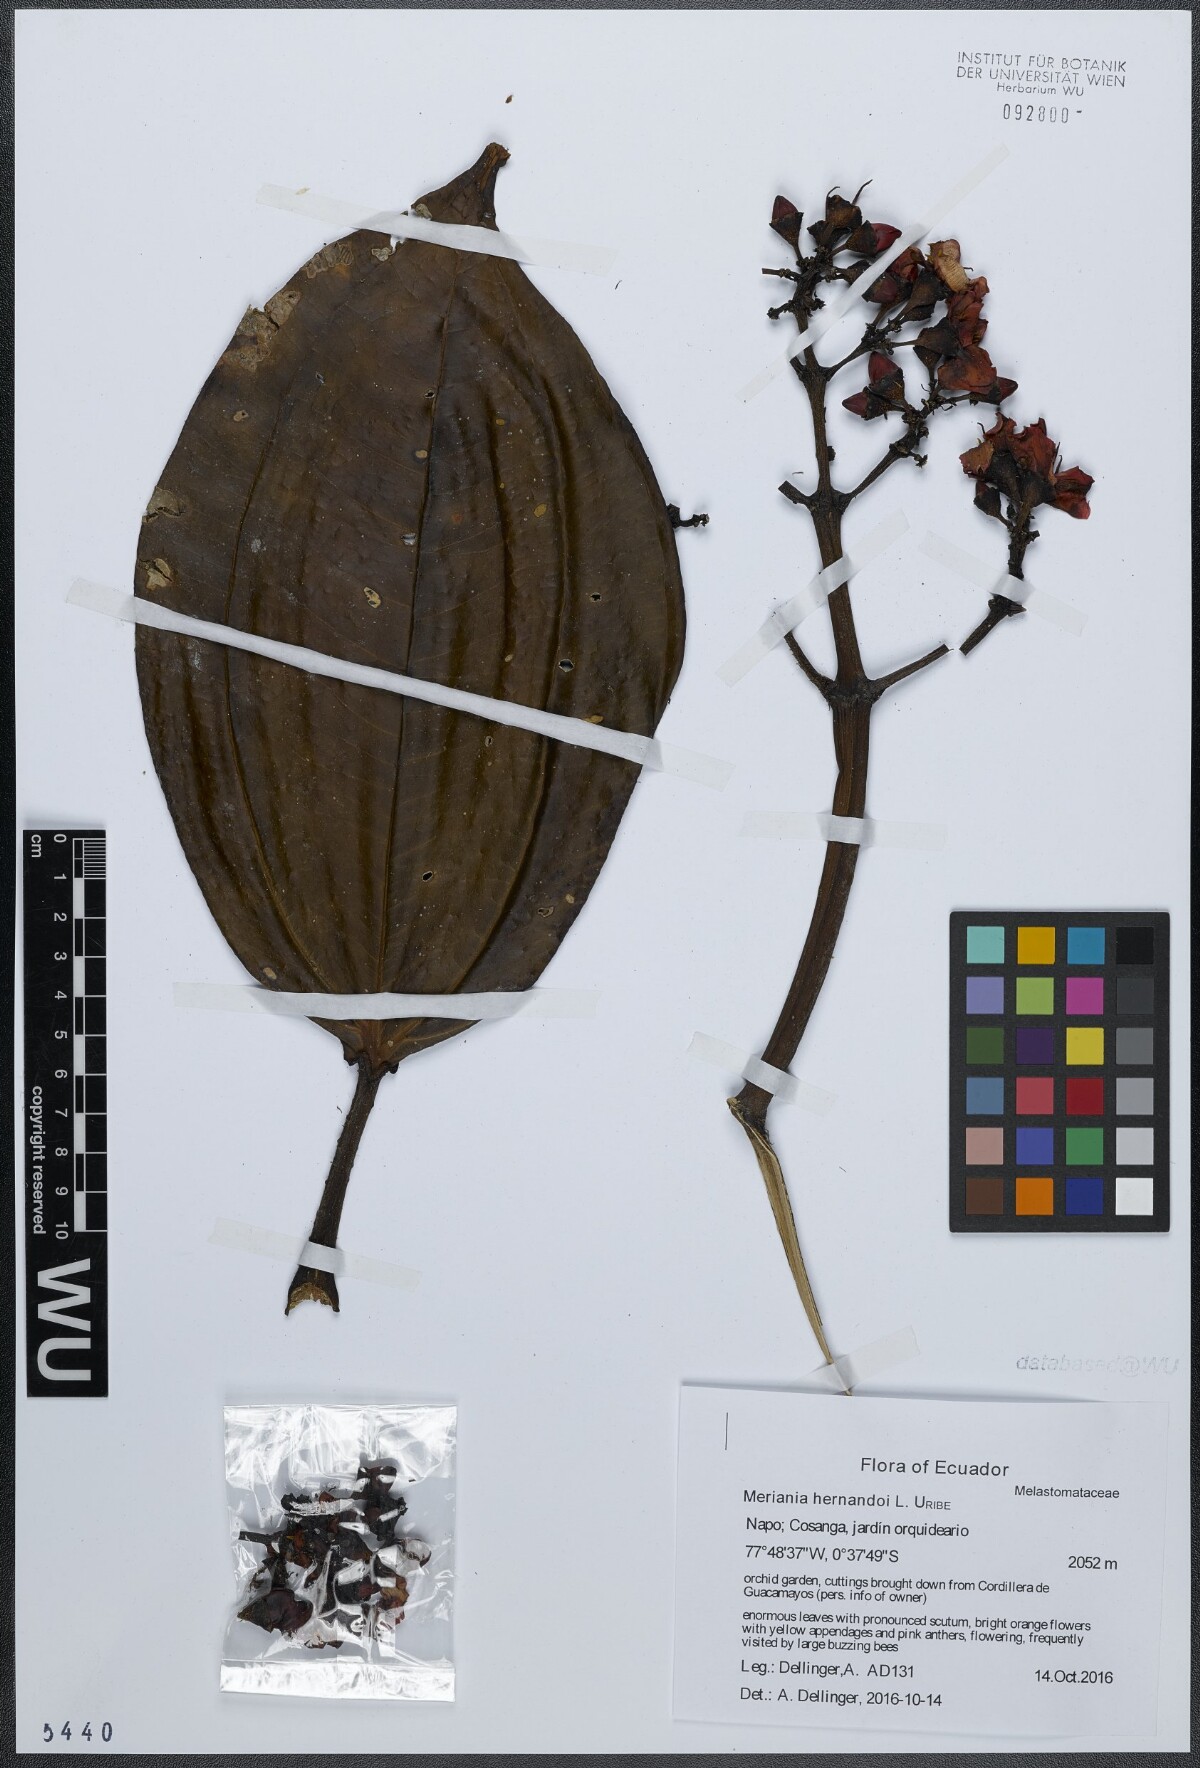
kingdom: Plantae
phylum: Tracheophyta
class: Magnoliopsida
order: Myrtales
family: Melastomataceae
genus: Meriania
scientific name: Meriania hernandoi
